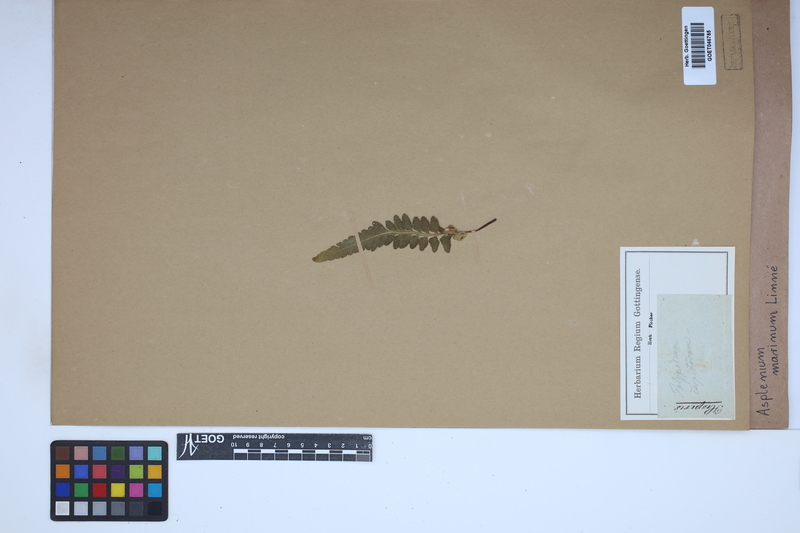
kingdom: Plantae
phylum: Tracheophyta
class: Polypodiopsida
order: Polypodiales
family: Aspleniaceae
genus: Asplenium
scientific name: Asplenium marinum
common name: Sea spleenwort
